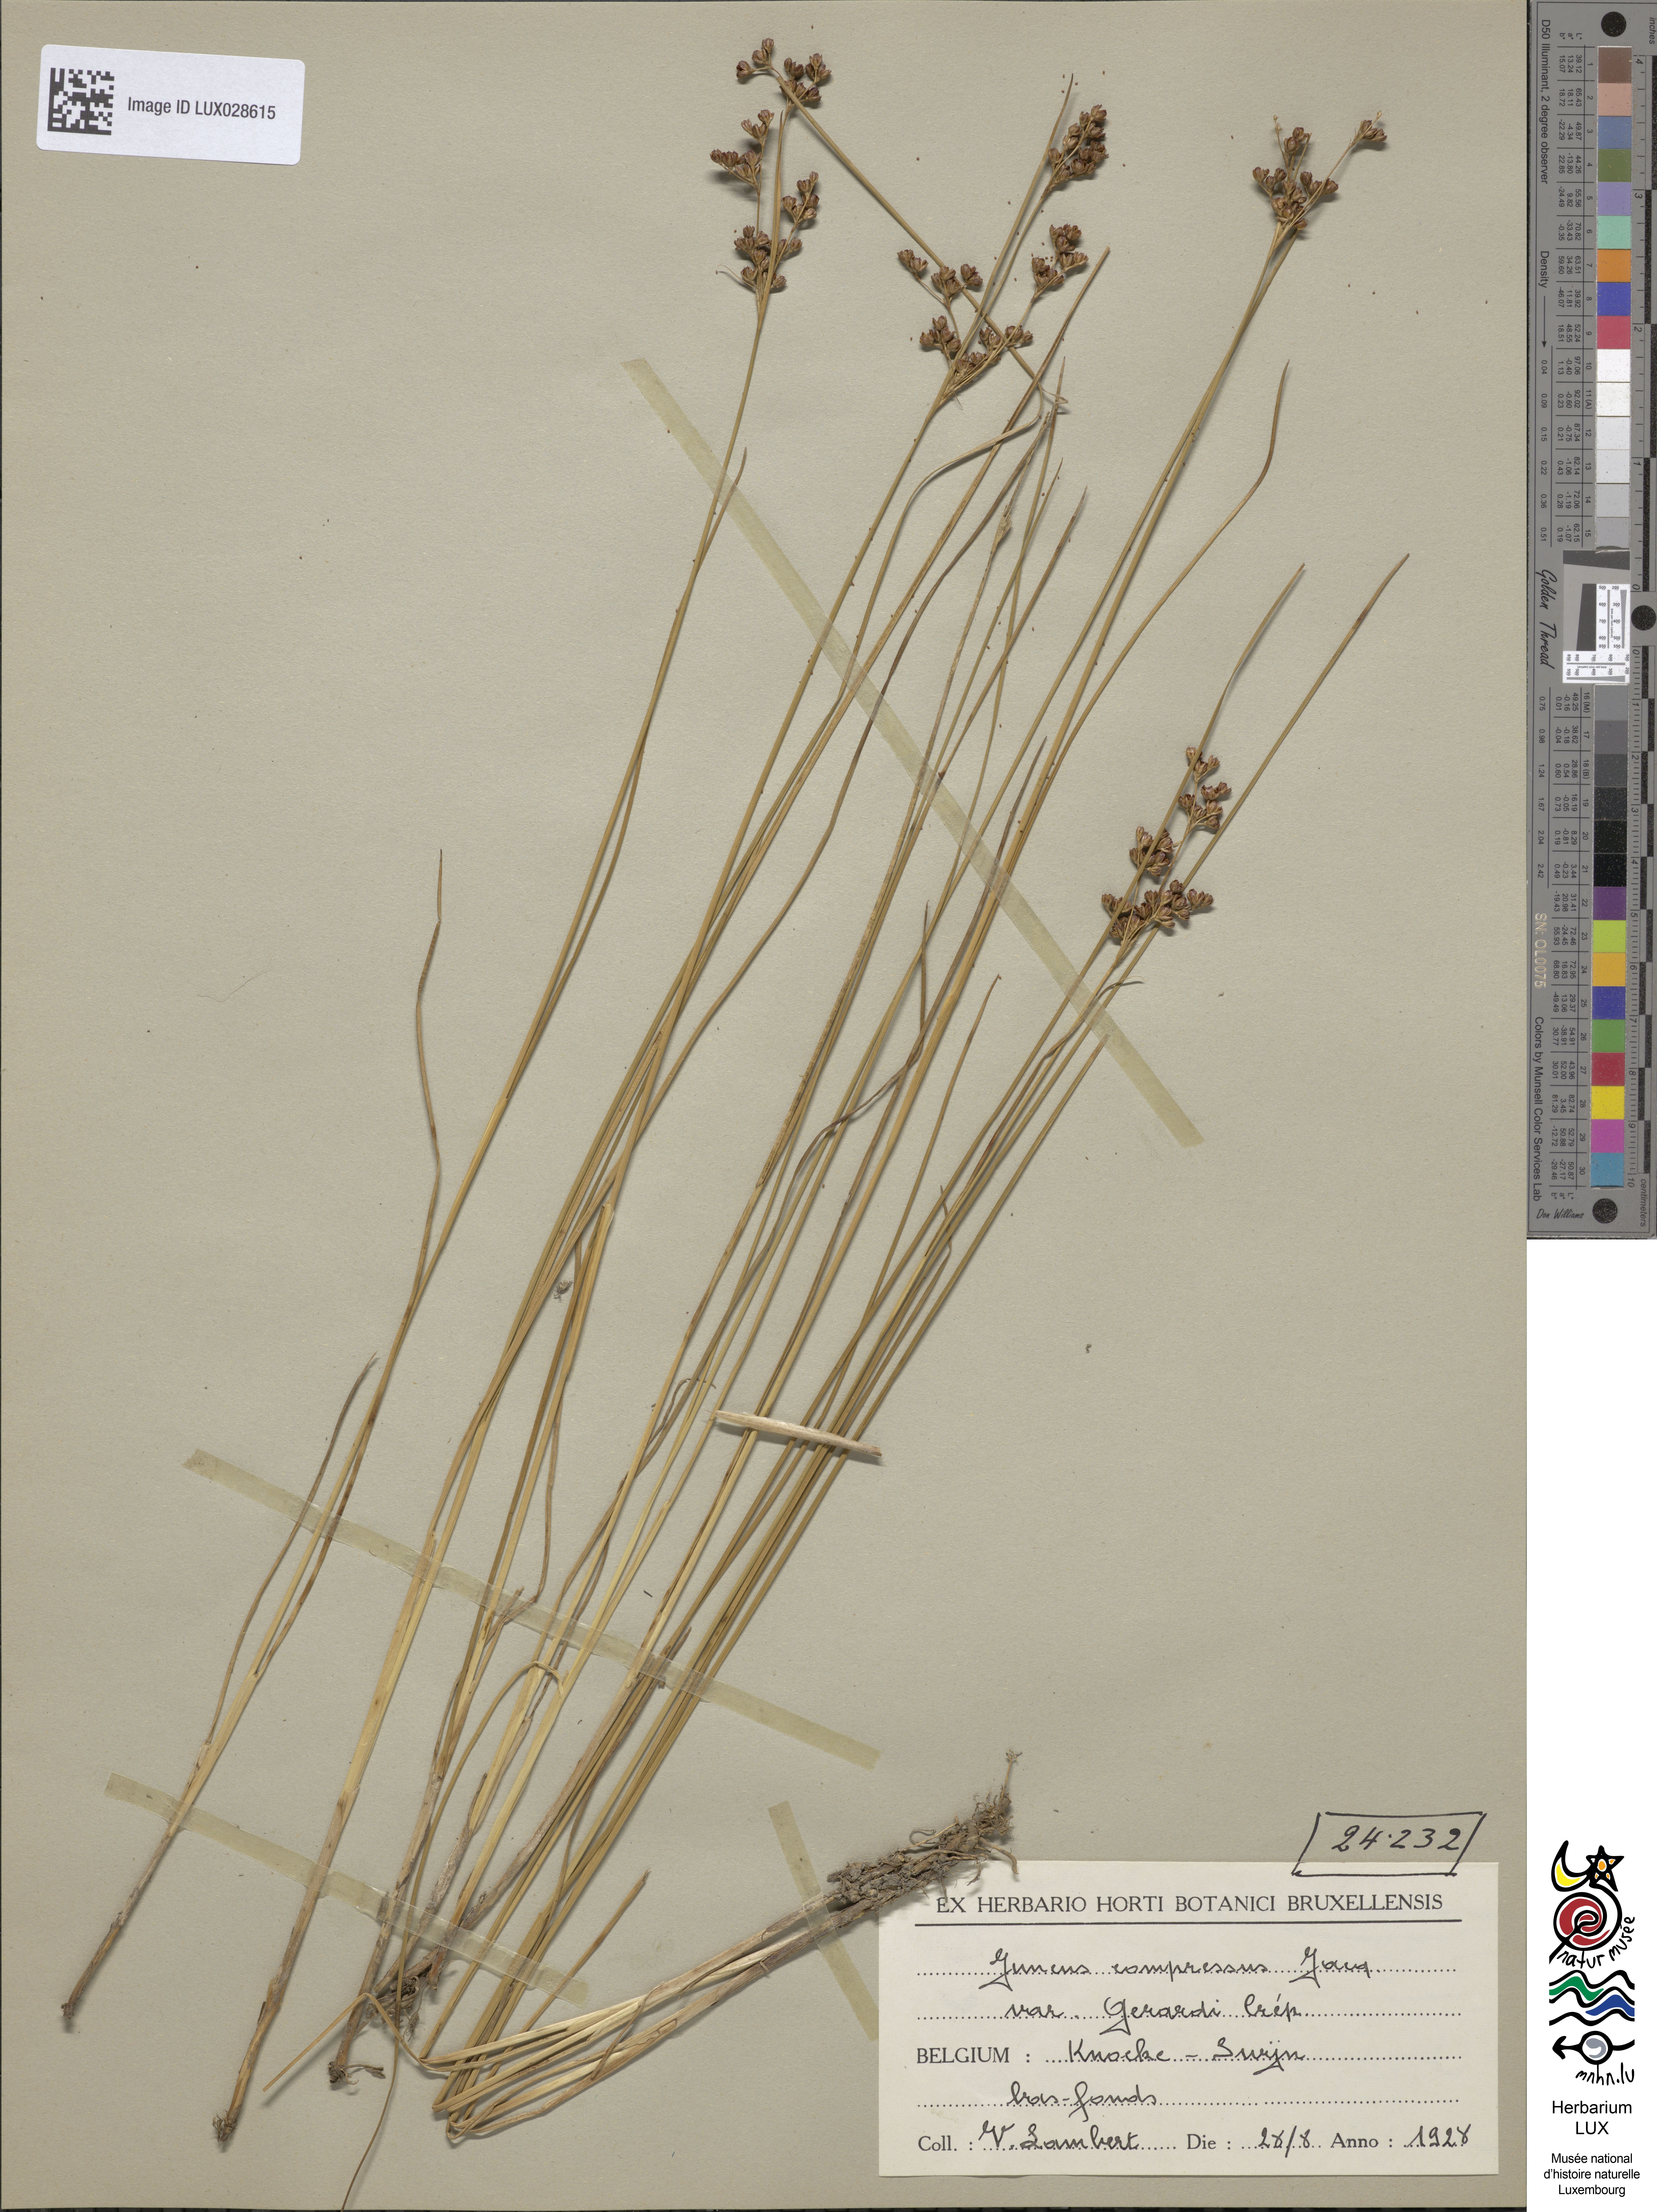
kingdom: Plantae
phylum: Tracheophyta
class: Liliopsida
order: Poales
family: Juncaceae
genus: Juncus
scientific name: Juncus gerardi
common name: Saltmarsh rush
